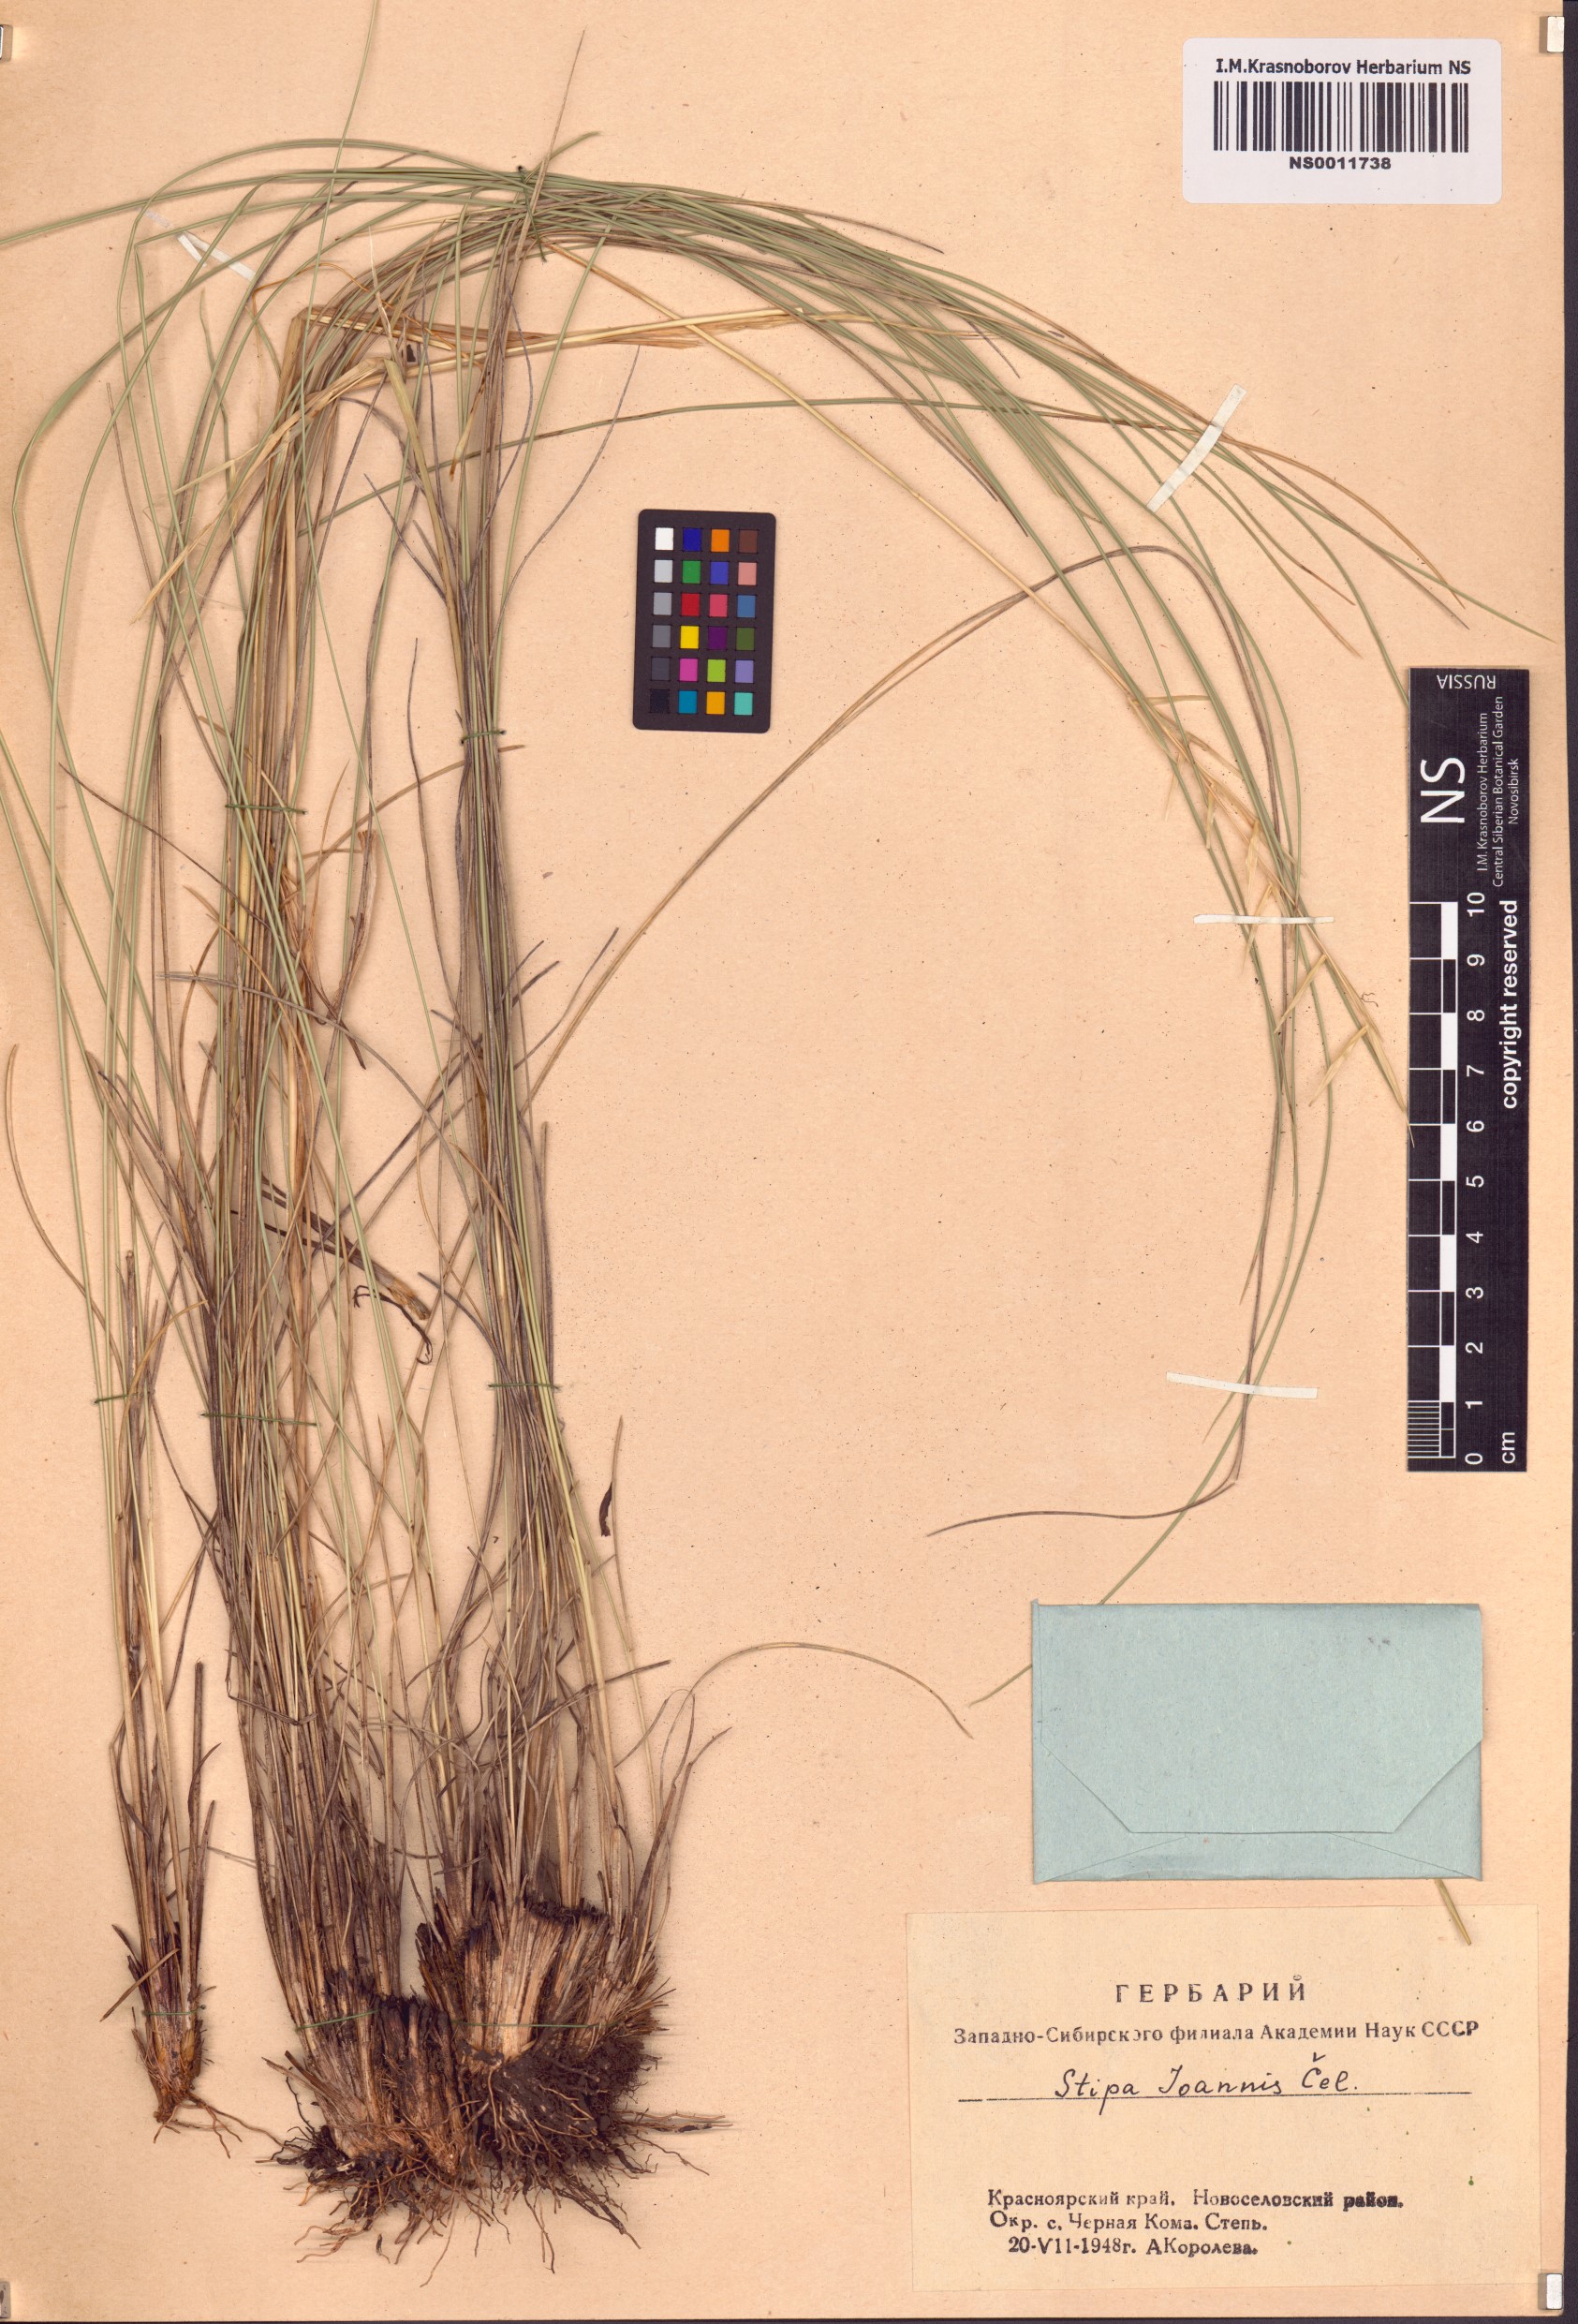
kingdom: Plantae
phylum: Tracheophyta
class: Liliopsida
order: Poales
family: Poaceae
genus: Stipa
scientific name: Stipa pennata
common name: European feather grass
